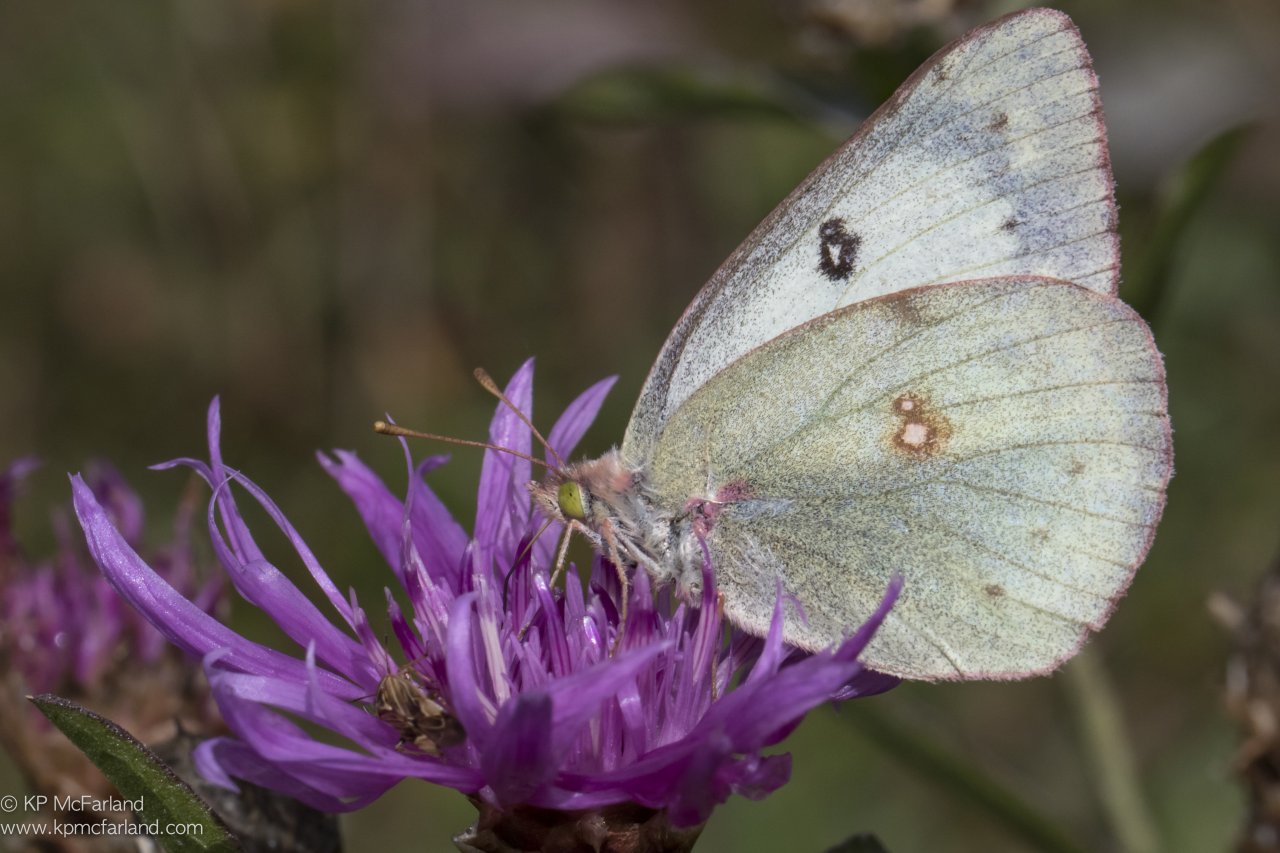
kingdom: Animalia
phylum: Arthropoda
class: Insecta
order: Lepidoptera
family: Pieridae
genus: Colias
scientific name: Colias philodice
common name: Clouded Sulphur
